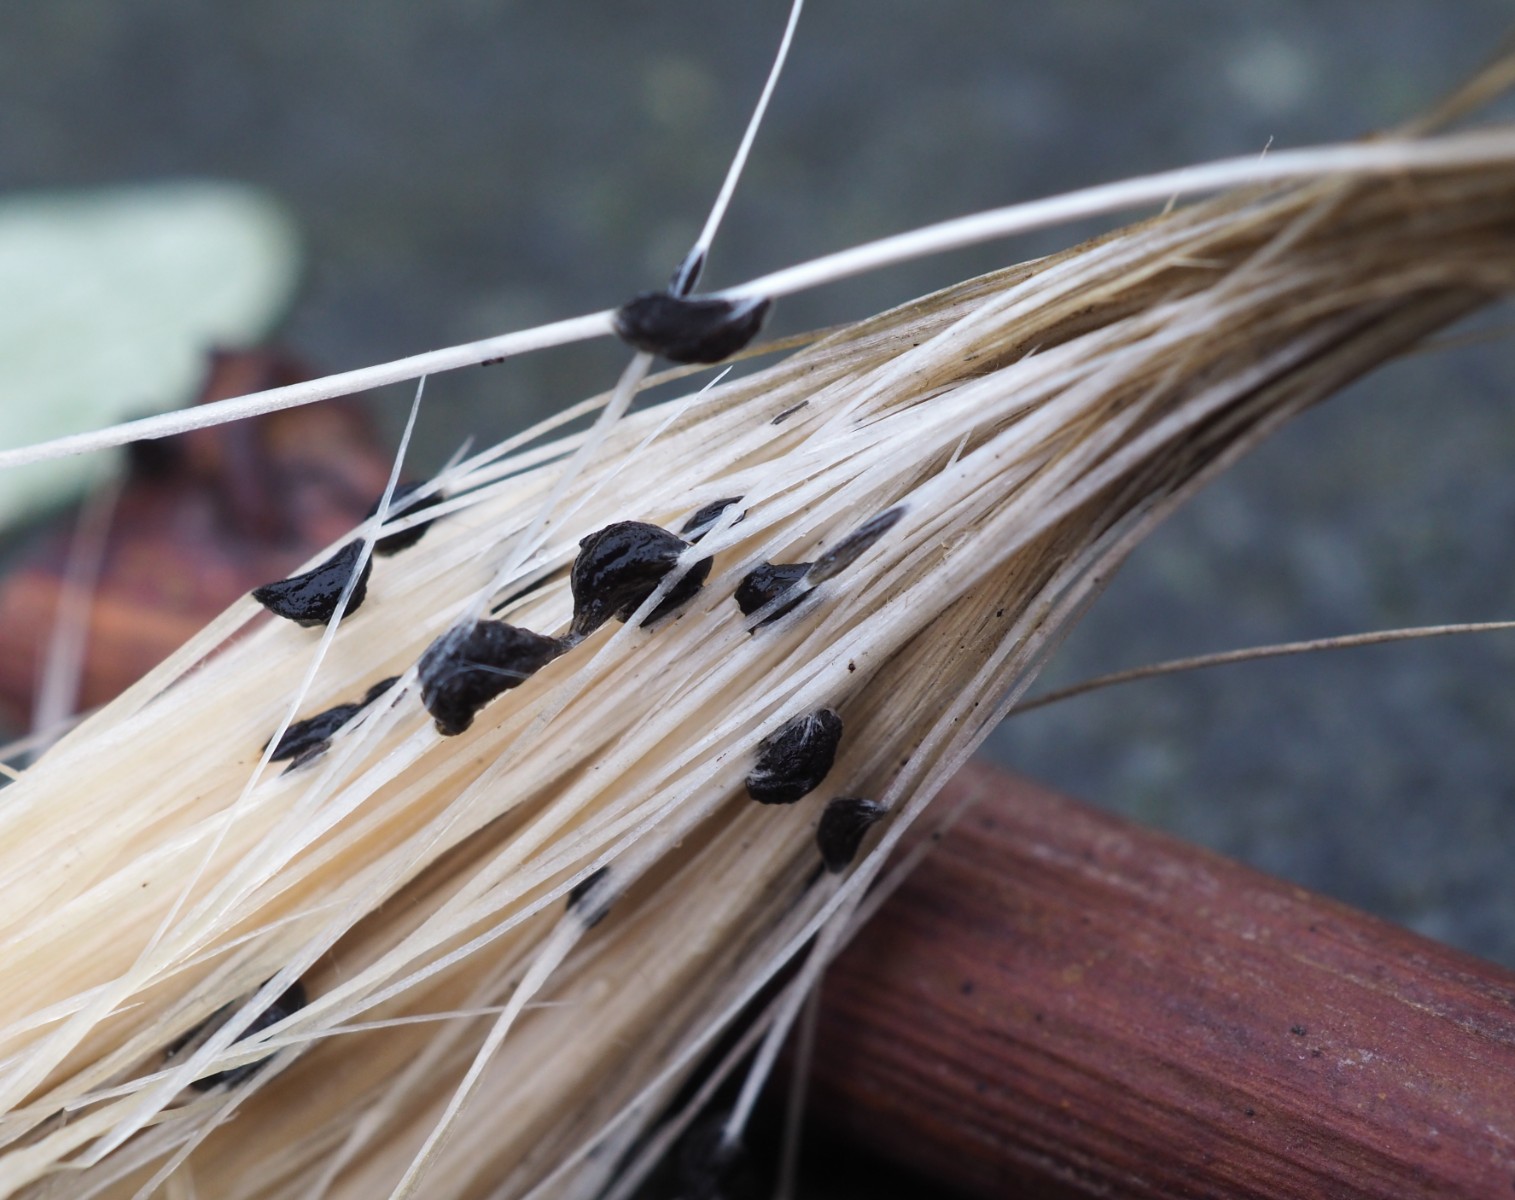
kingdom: Fungi
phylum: Basidiomycota
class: Agaricomycetes
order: Agaricales
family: Typhulaceae
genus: Sclerotium
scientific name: Sclerotium
